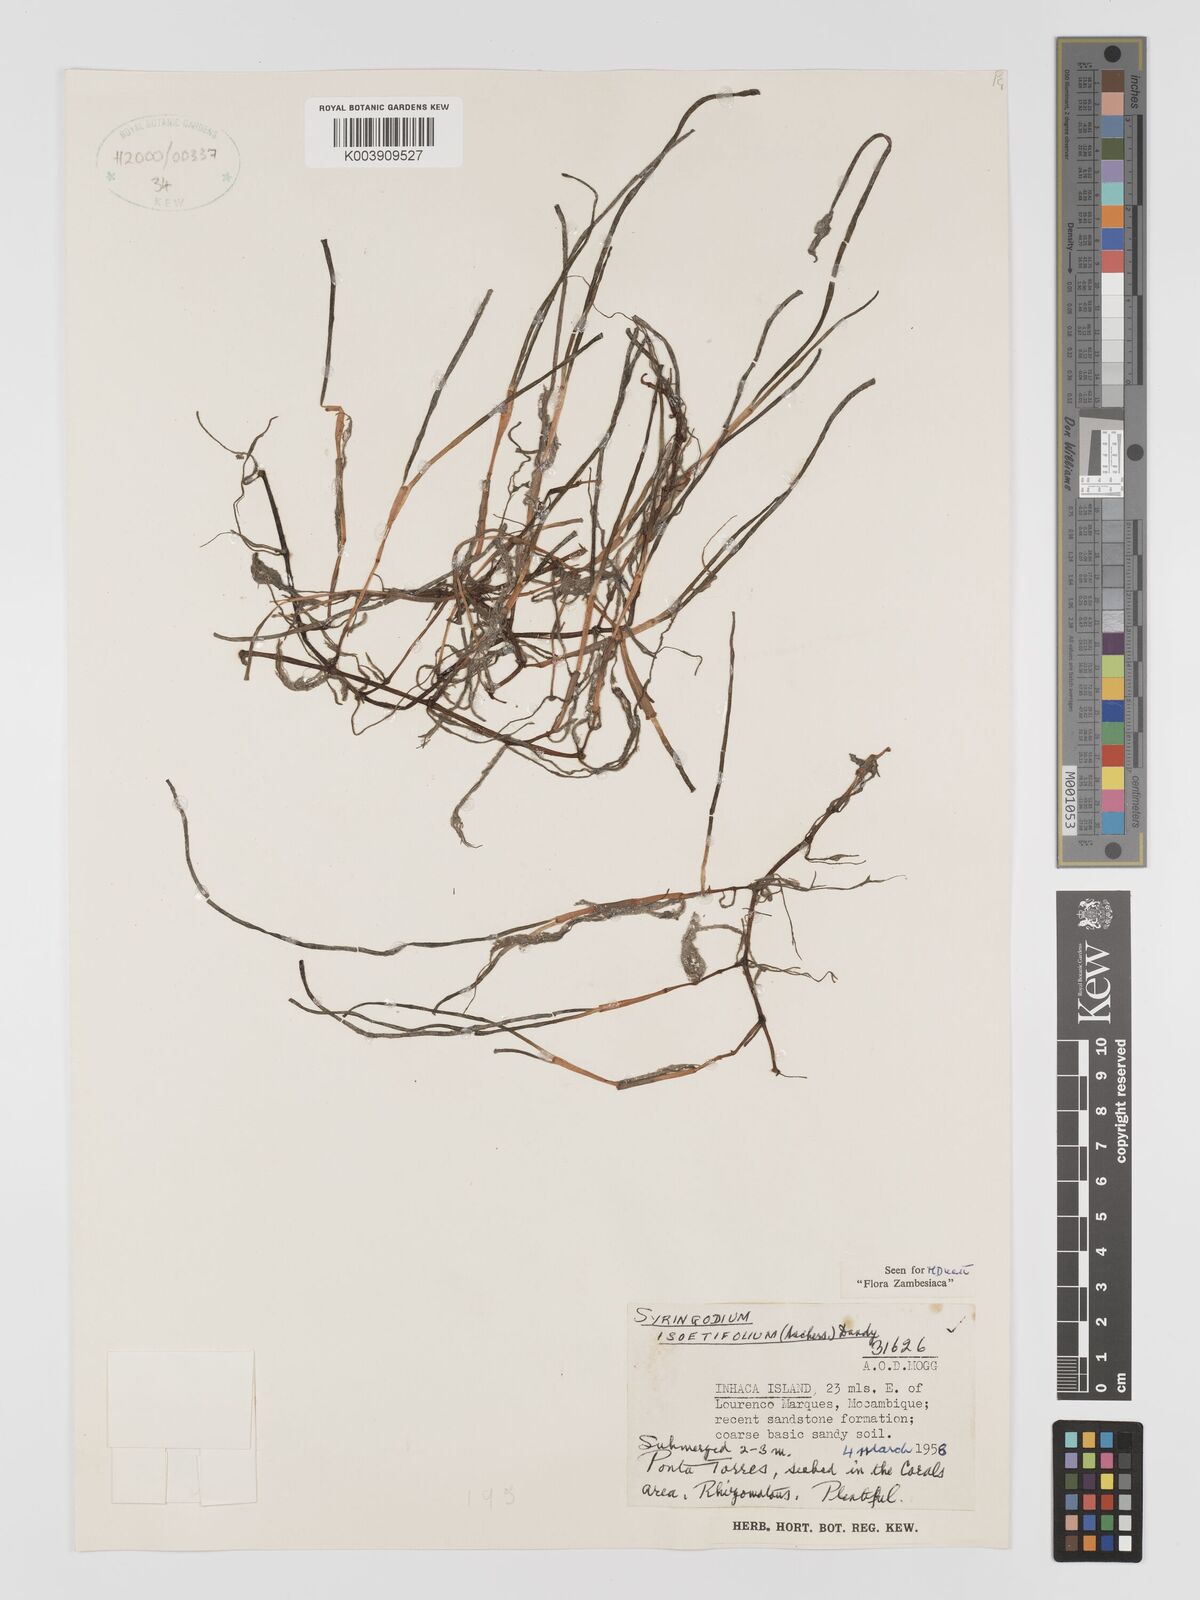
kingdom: Plantae
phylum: Tracheophyta
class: Liliopsida
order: Alismatales
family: Cymodoceaceae
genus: Syringodium
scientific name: Syringodium isoetifolium
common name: Species code: si
